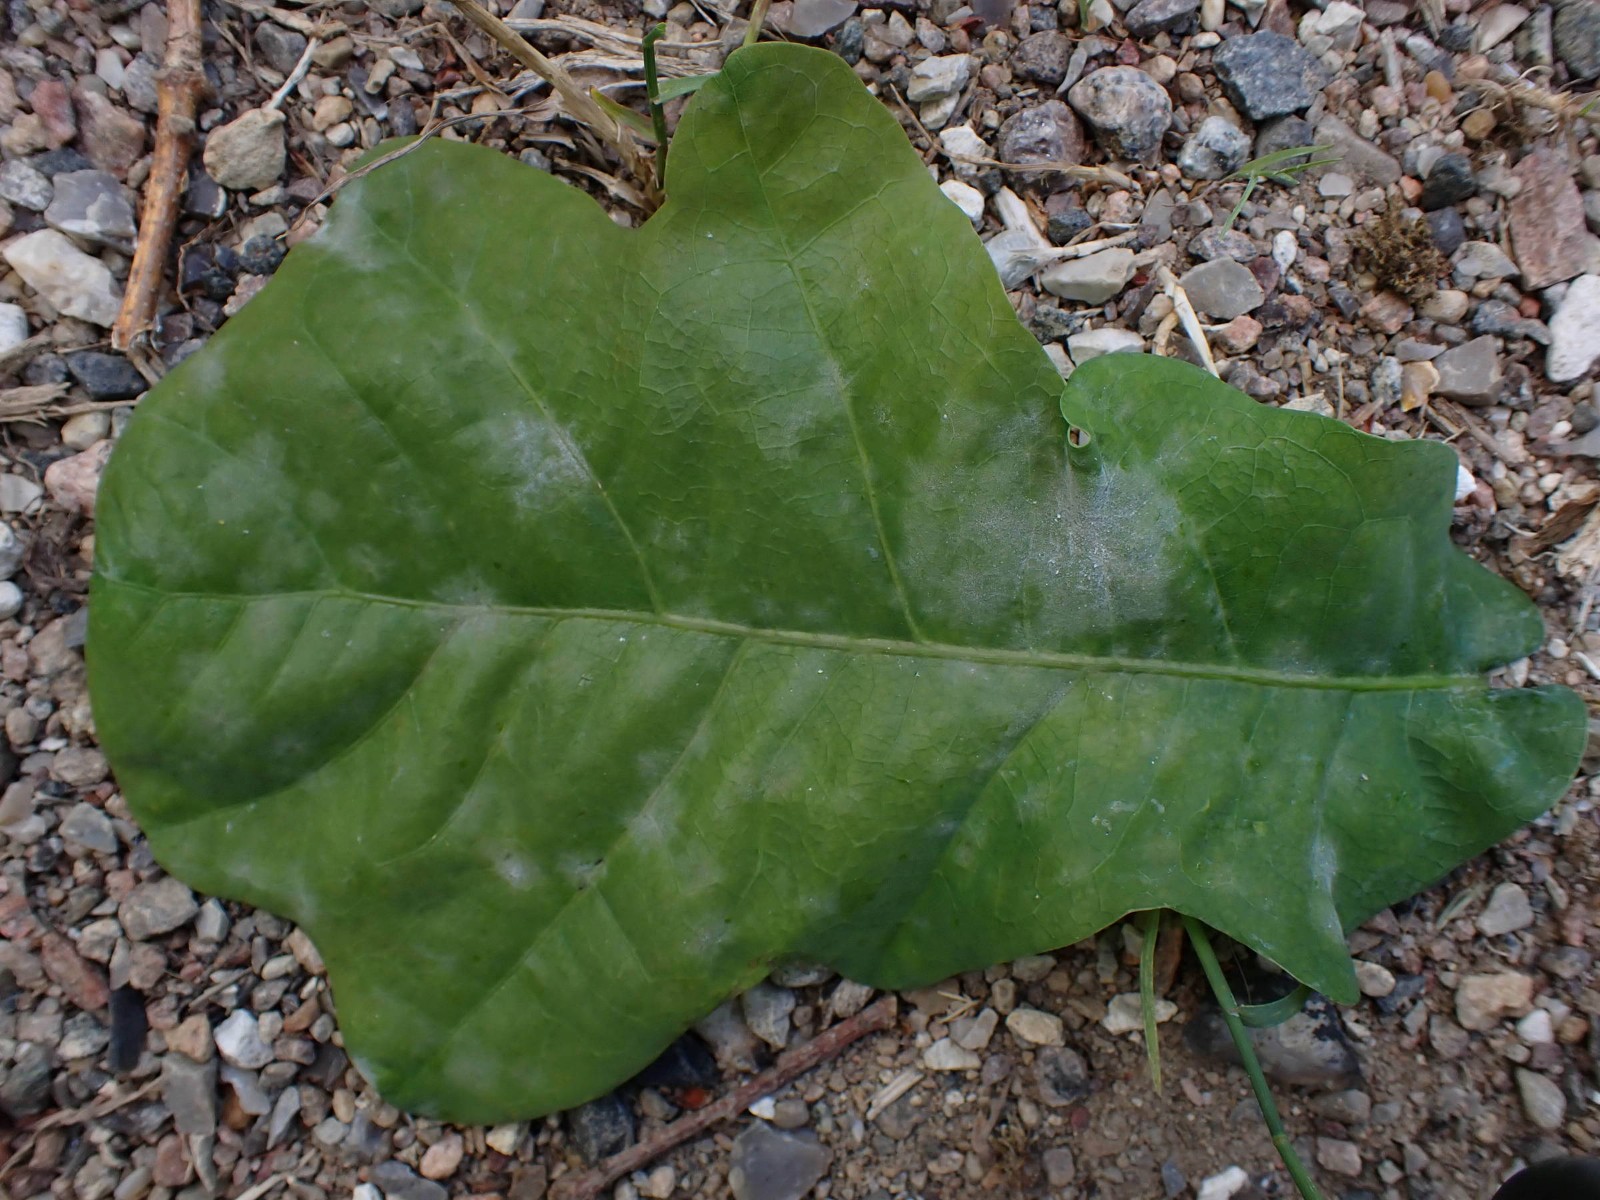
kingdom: Fungi
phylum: Ascomycota
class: Leotiomycetes
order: Helotiales
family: Erysiphaceae
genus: Erysiphe
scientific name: Erysiphe alphitoides
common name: ege-meldug
